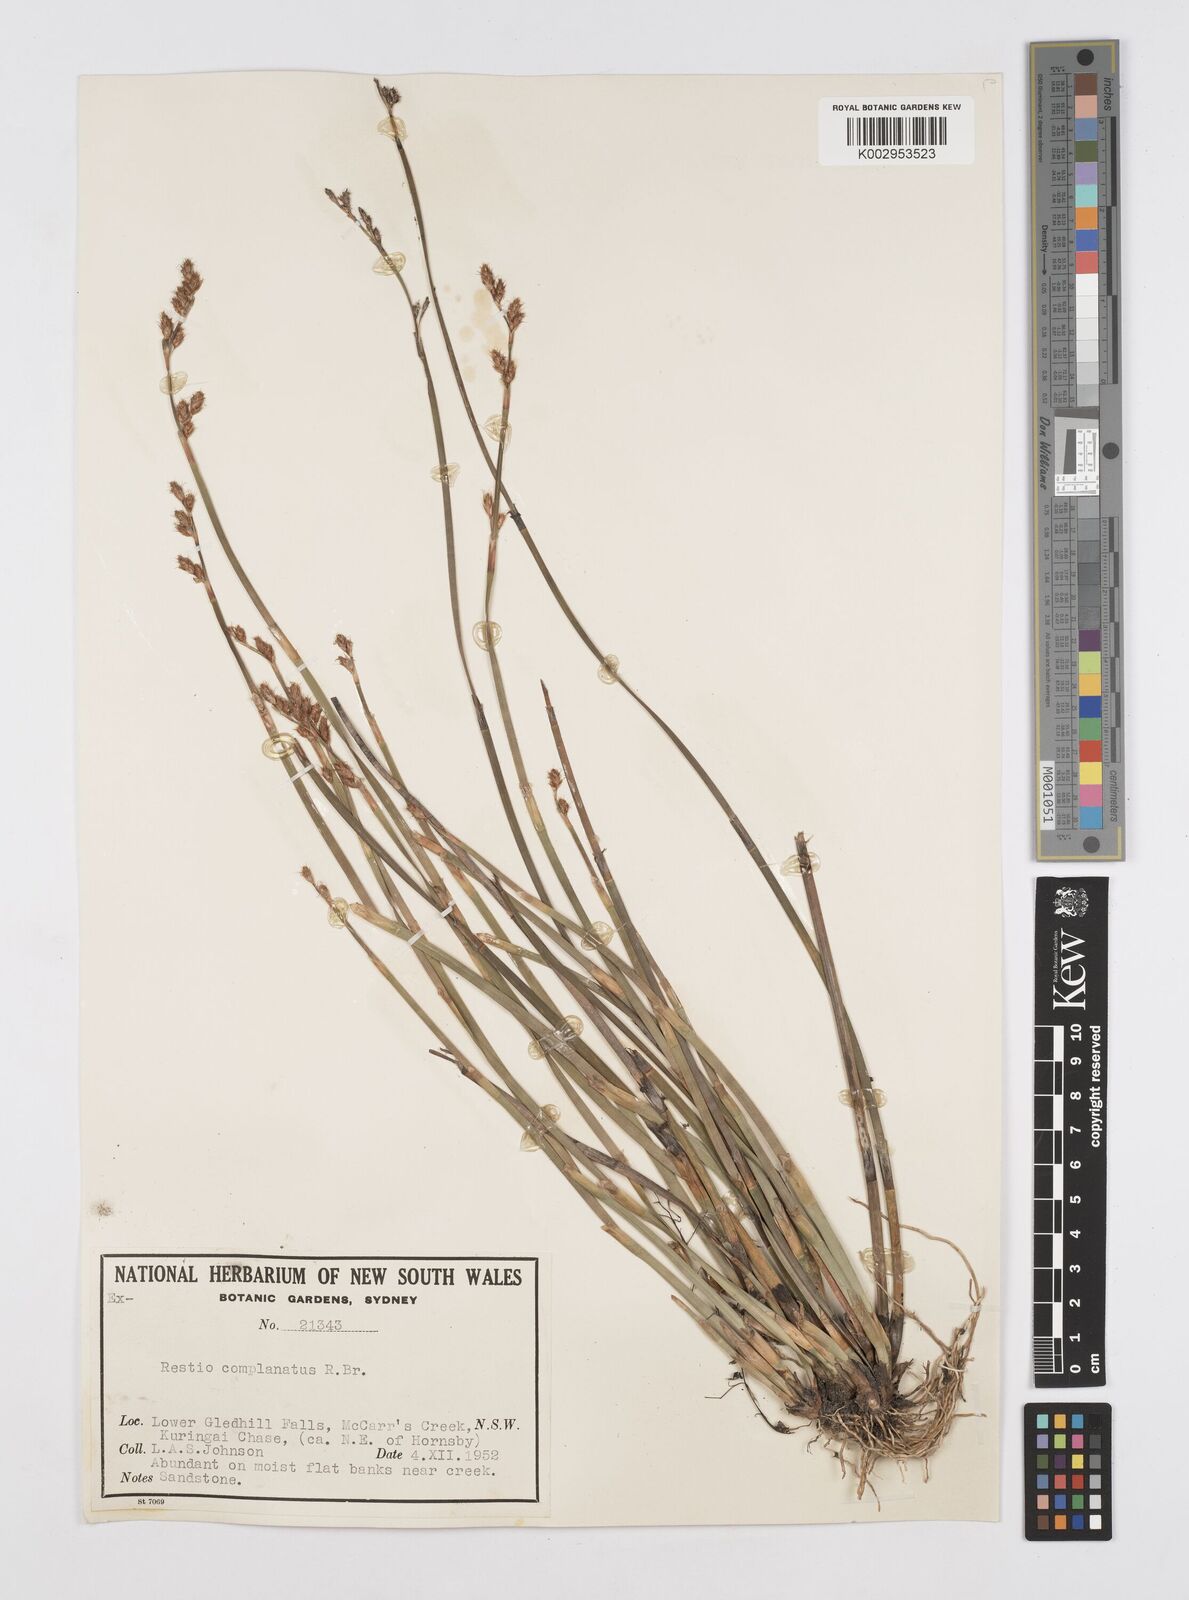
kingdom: Plantae
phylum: Tracheophyta
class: Liliopsida
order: Poales
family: Restionaceae
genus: Eurychorda
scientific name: Eurychorda complanata
